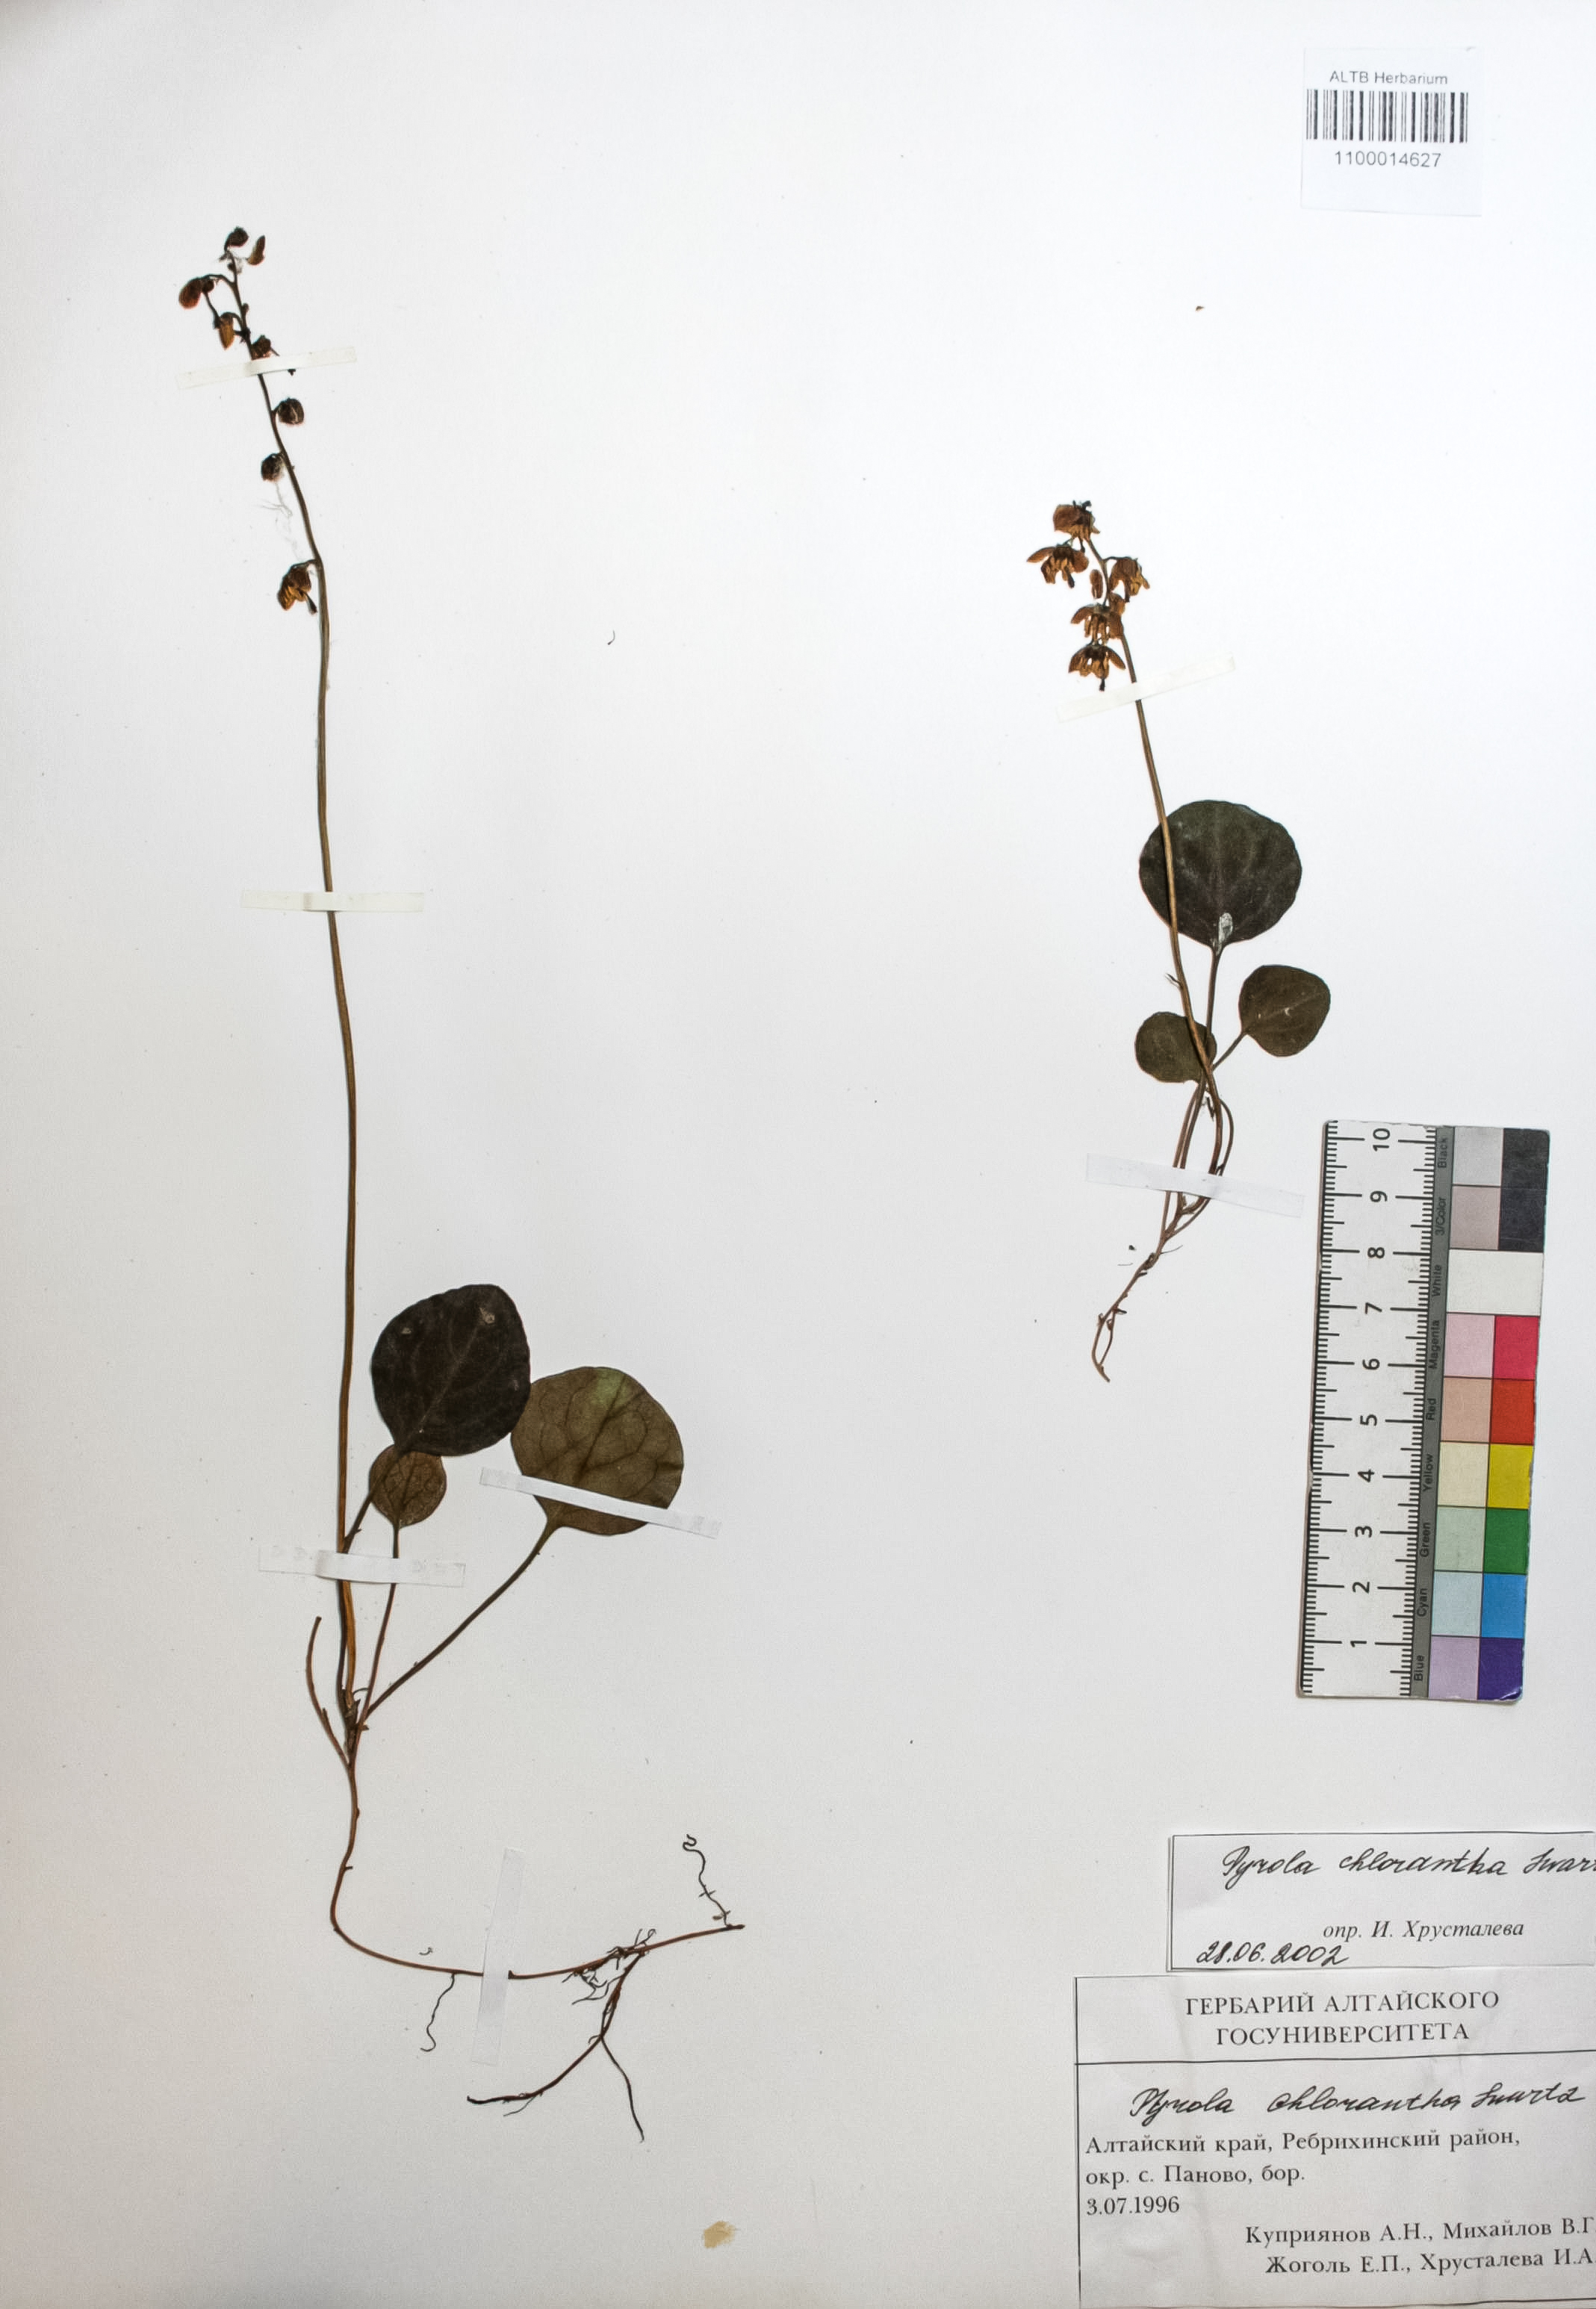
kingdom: Plantae
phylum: Tracheophyta
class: Magnoliopsida
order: Ericales
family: Ericaceae
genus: Pyrola
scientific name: Pyrola chlorantha
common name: Green wintergreen
